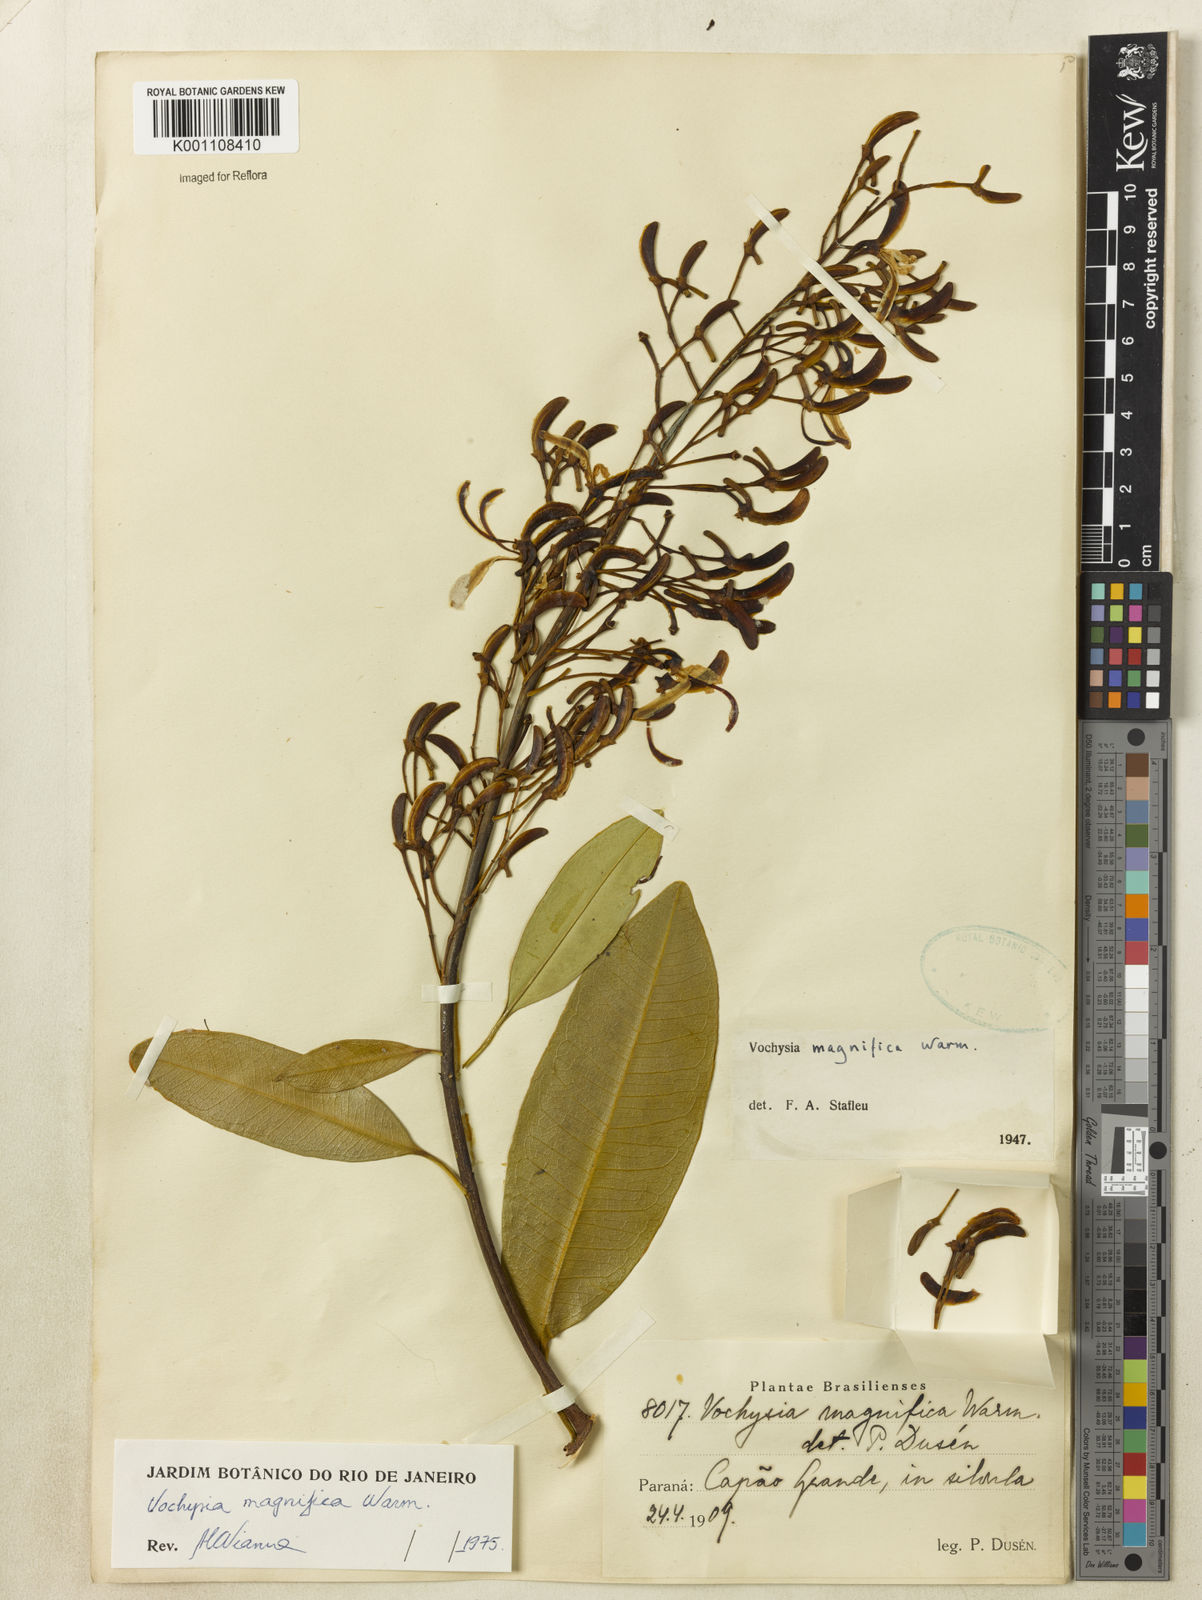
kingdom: Plantae
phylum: Tracheophyta
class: Magnoliopsida
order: Myrtales
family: Vochysiaceae
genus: Vochysia
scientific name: Vochysia magnifica
